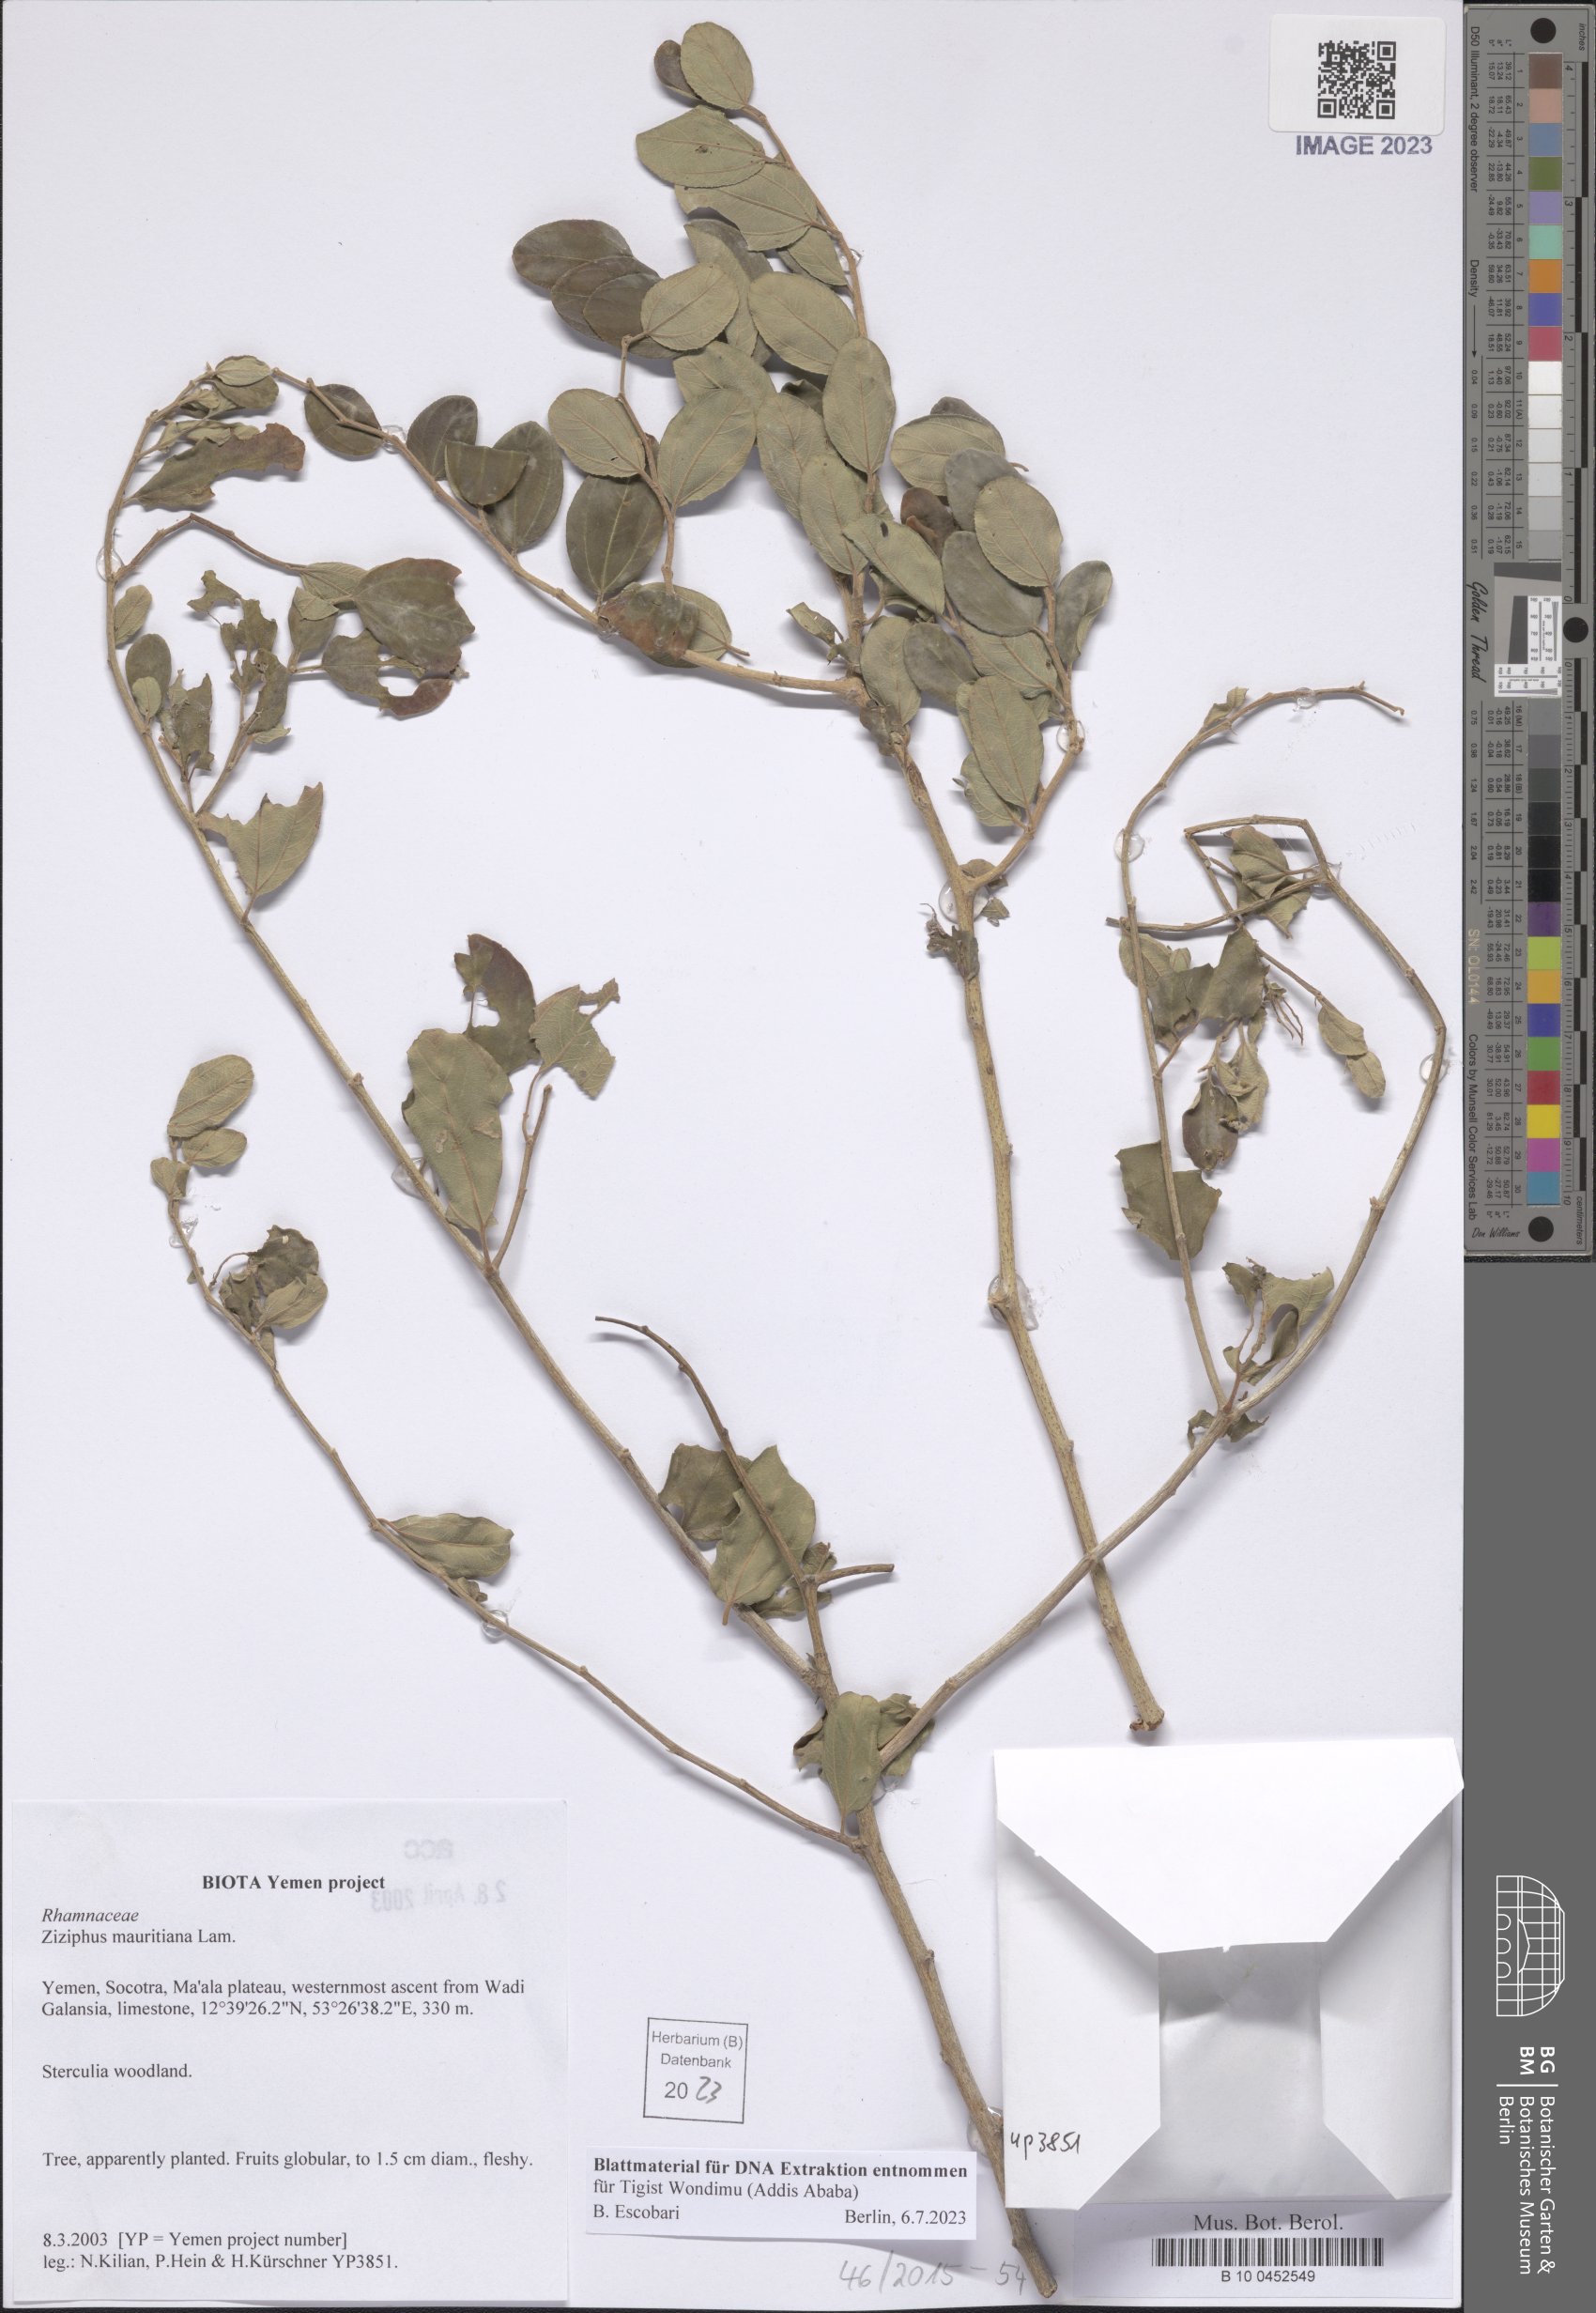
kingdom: Plantae
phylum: Tracheophyta
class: Magnoliopsida
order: Rosales
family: Rhamnaceae
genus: Ziziphus
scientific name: Ziziphus mauritiana
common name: Indian jujube
